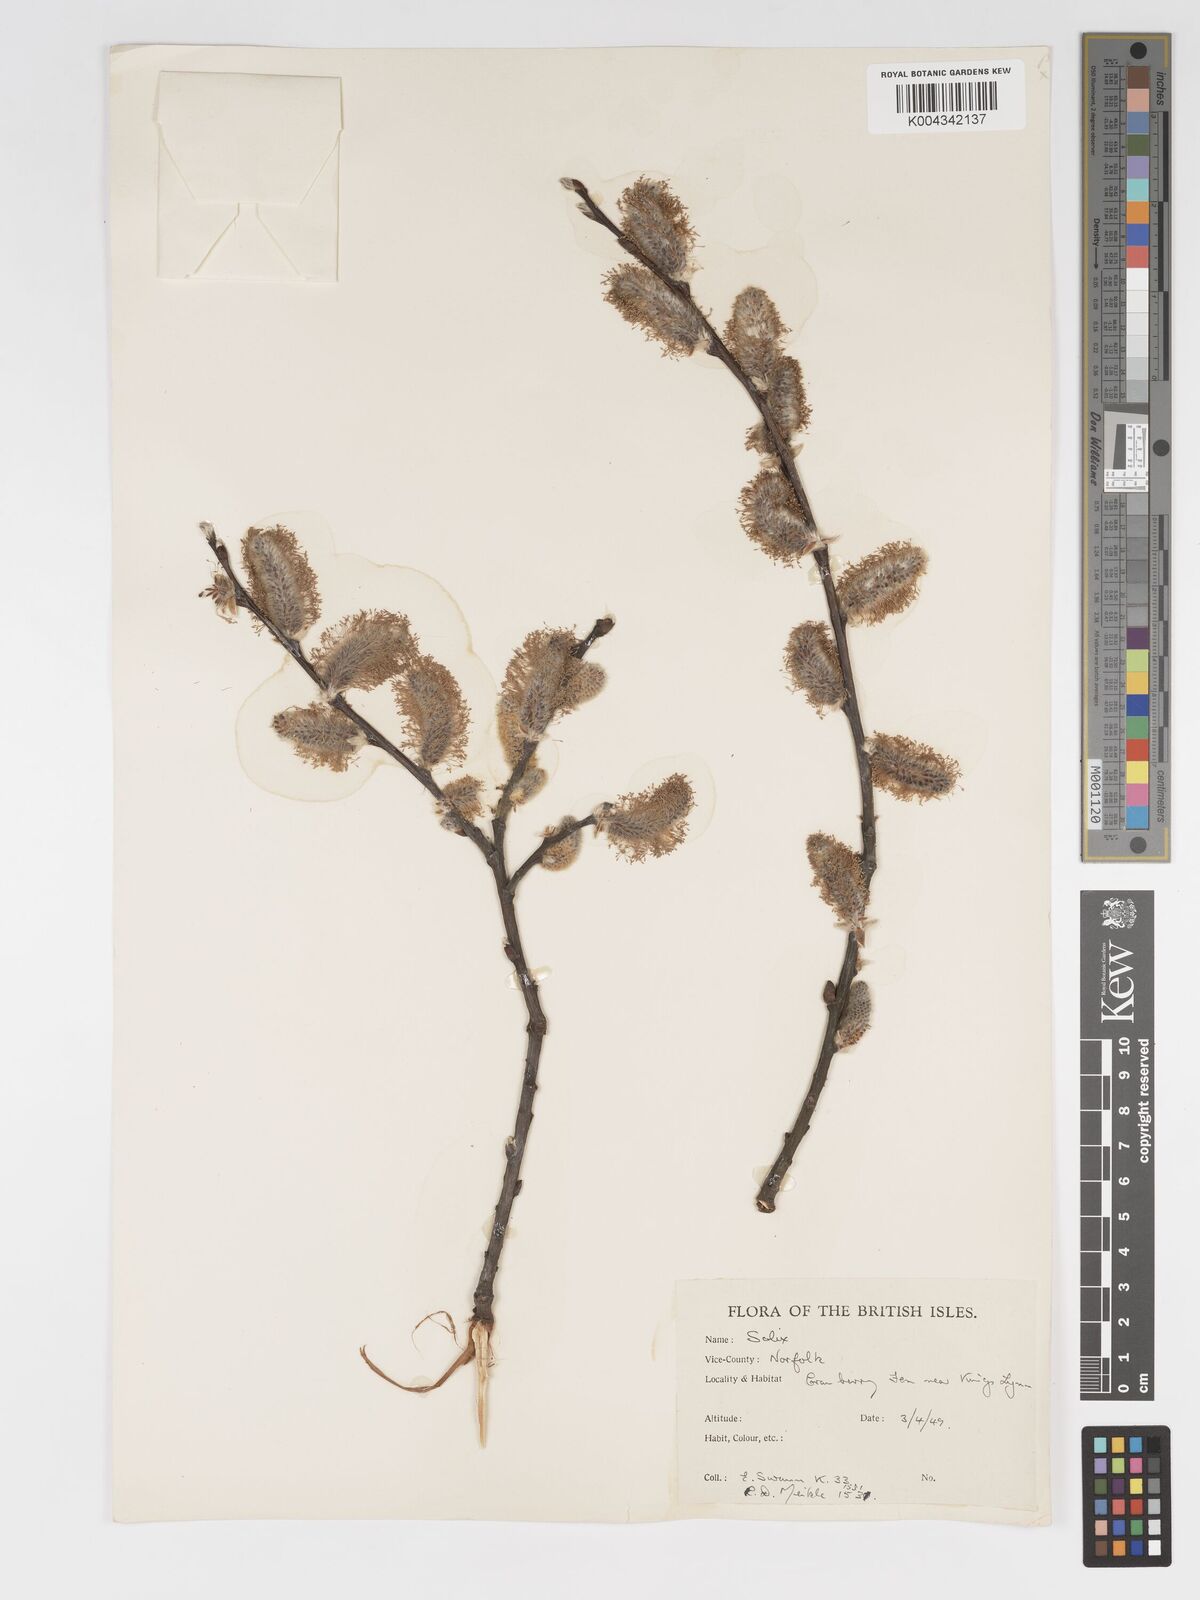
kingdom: Plantae
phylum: Tracheophyta
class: Magnoliopsida
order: Malpighiales
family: Salicaceae
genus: Salix
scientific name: Salix
